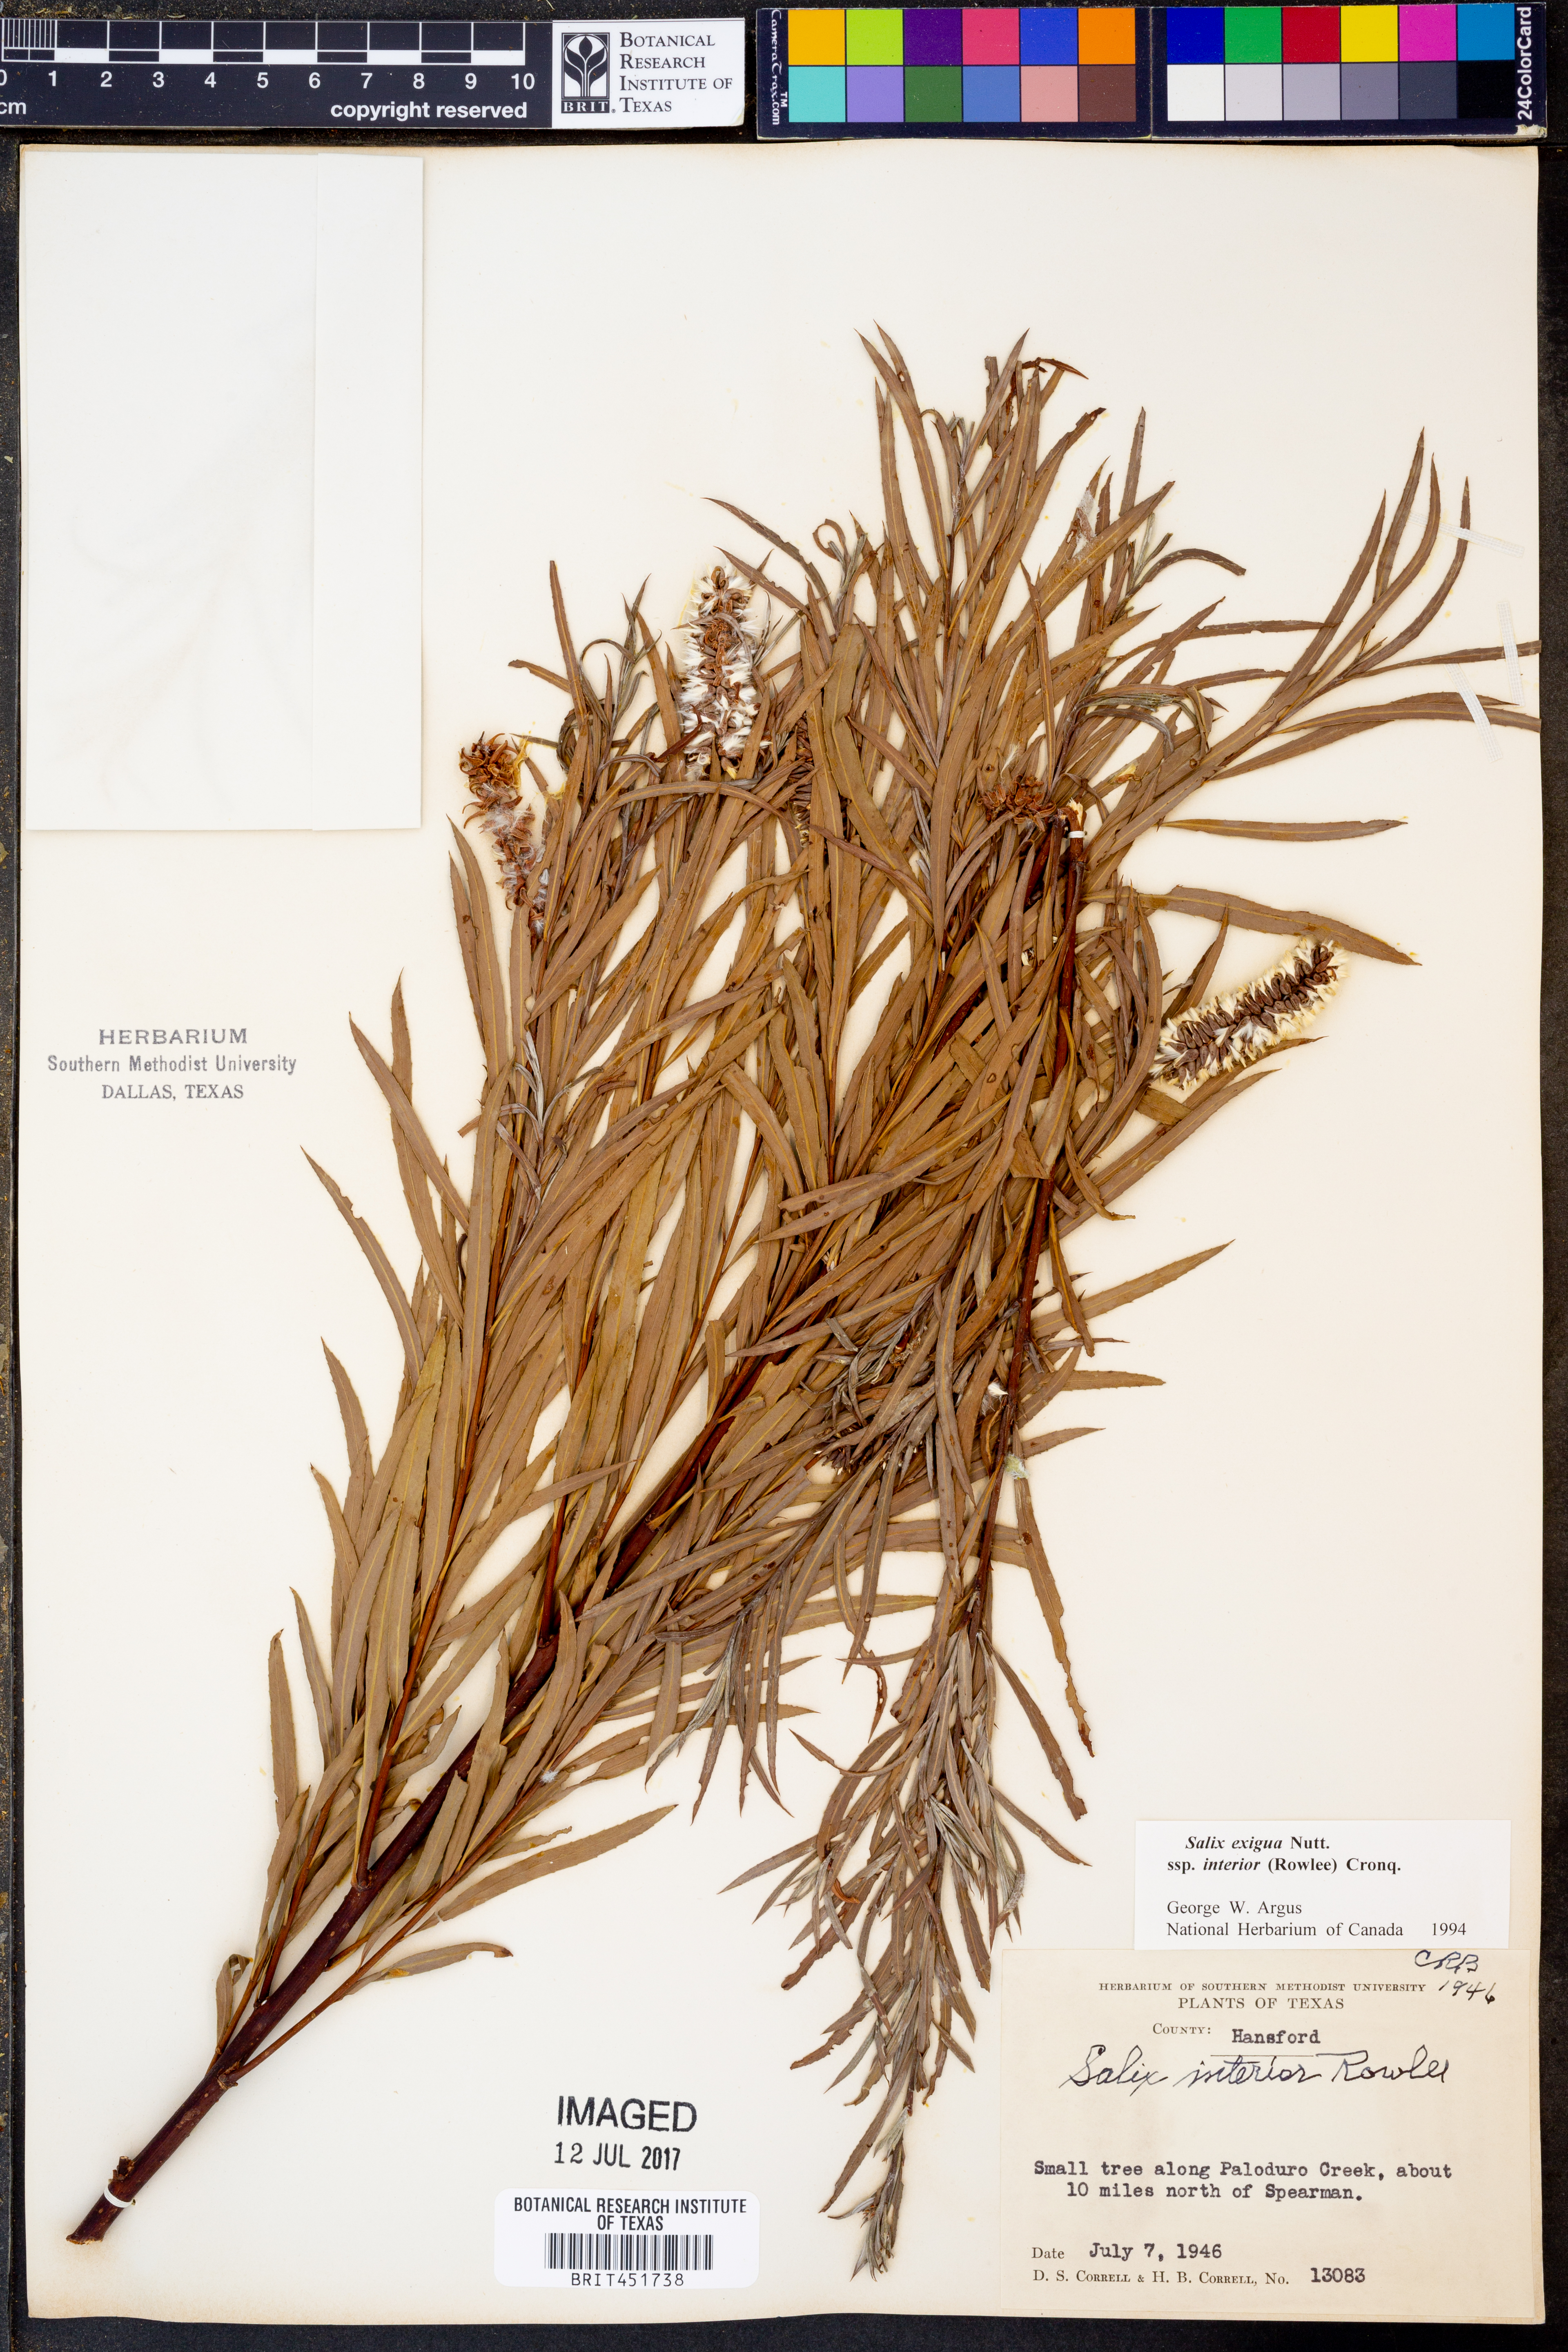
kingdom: Plantae
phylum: Tracheophyta
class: Magnoliopsida
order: Malpighiales
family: Salicaceae
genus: Salix
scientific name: Salix interior
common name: Sandbar willow
